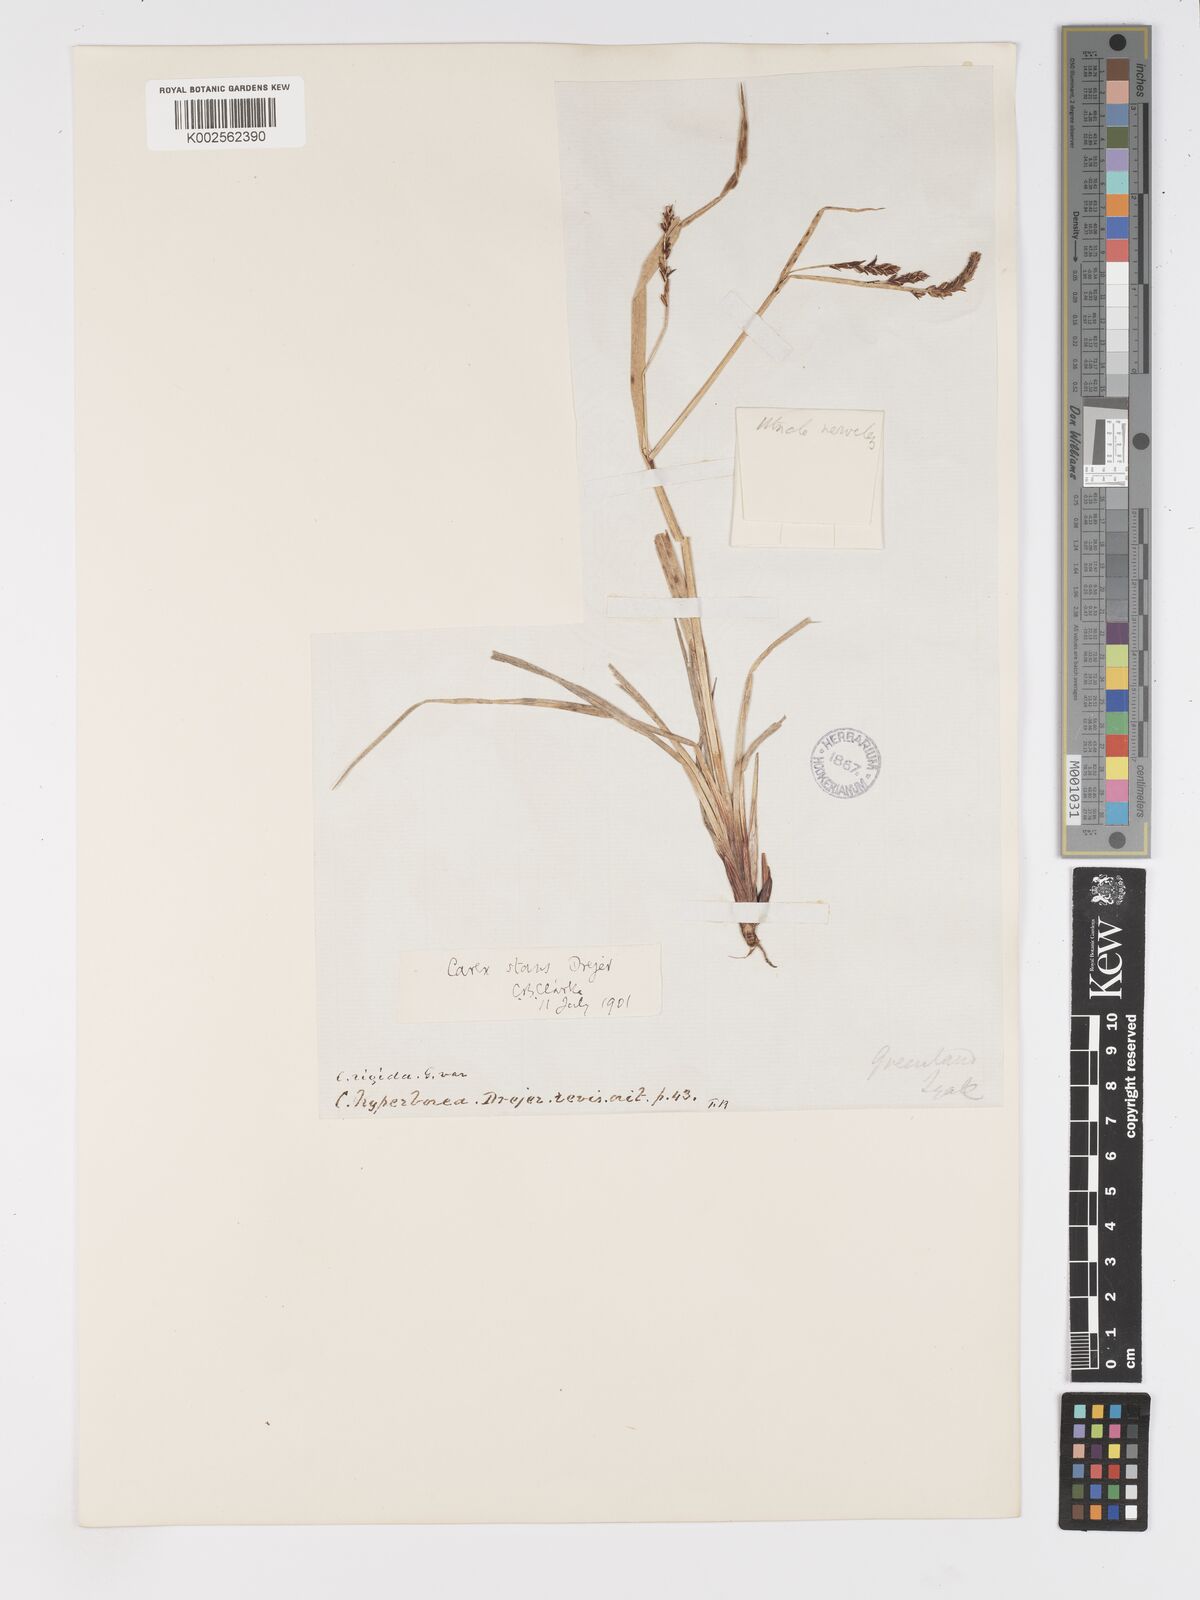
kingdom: Plantae
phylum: Tracheophyta
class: Liliopsida
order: Poales
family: Cyperaceae
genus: Carex
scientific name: Carex aquatilis
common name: Water sedge
